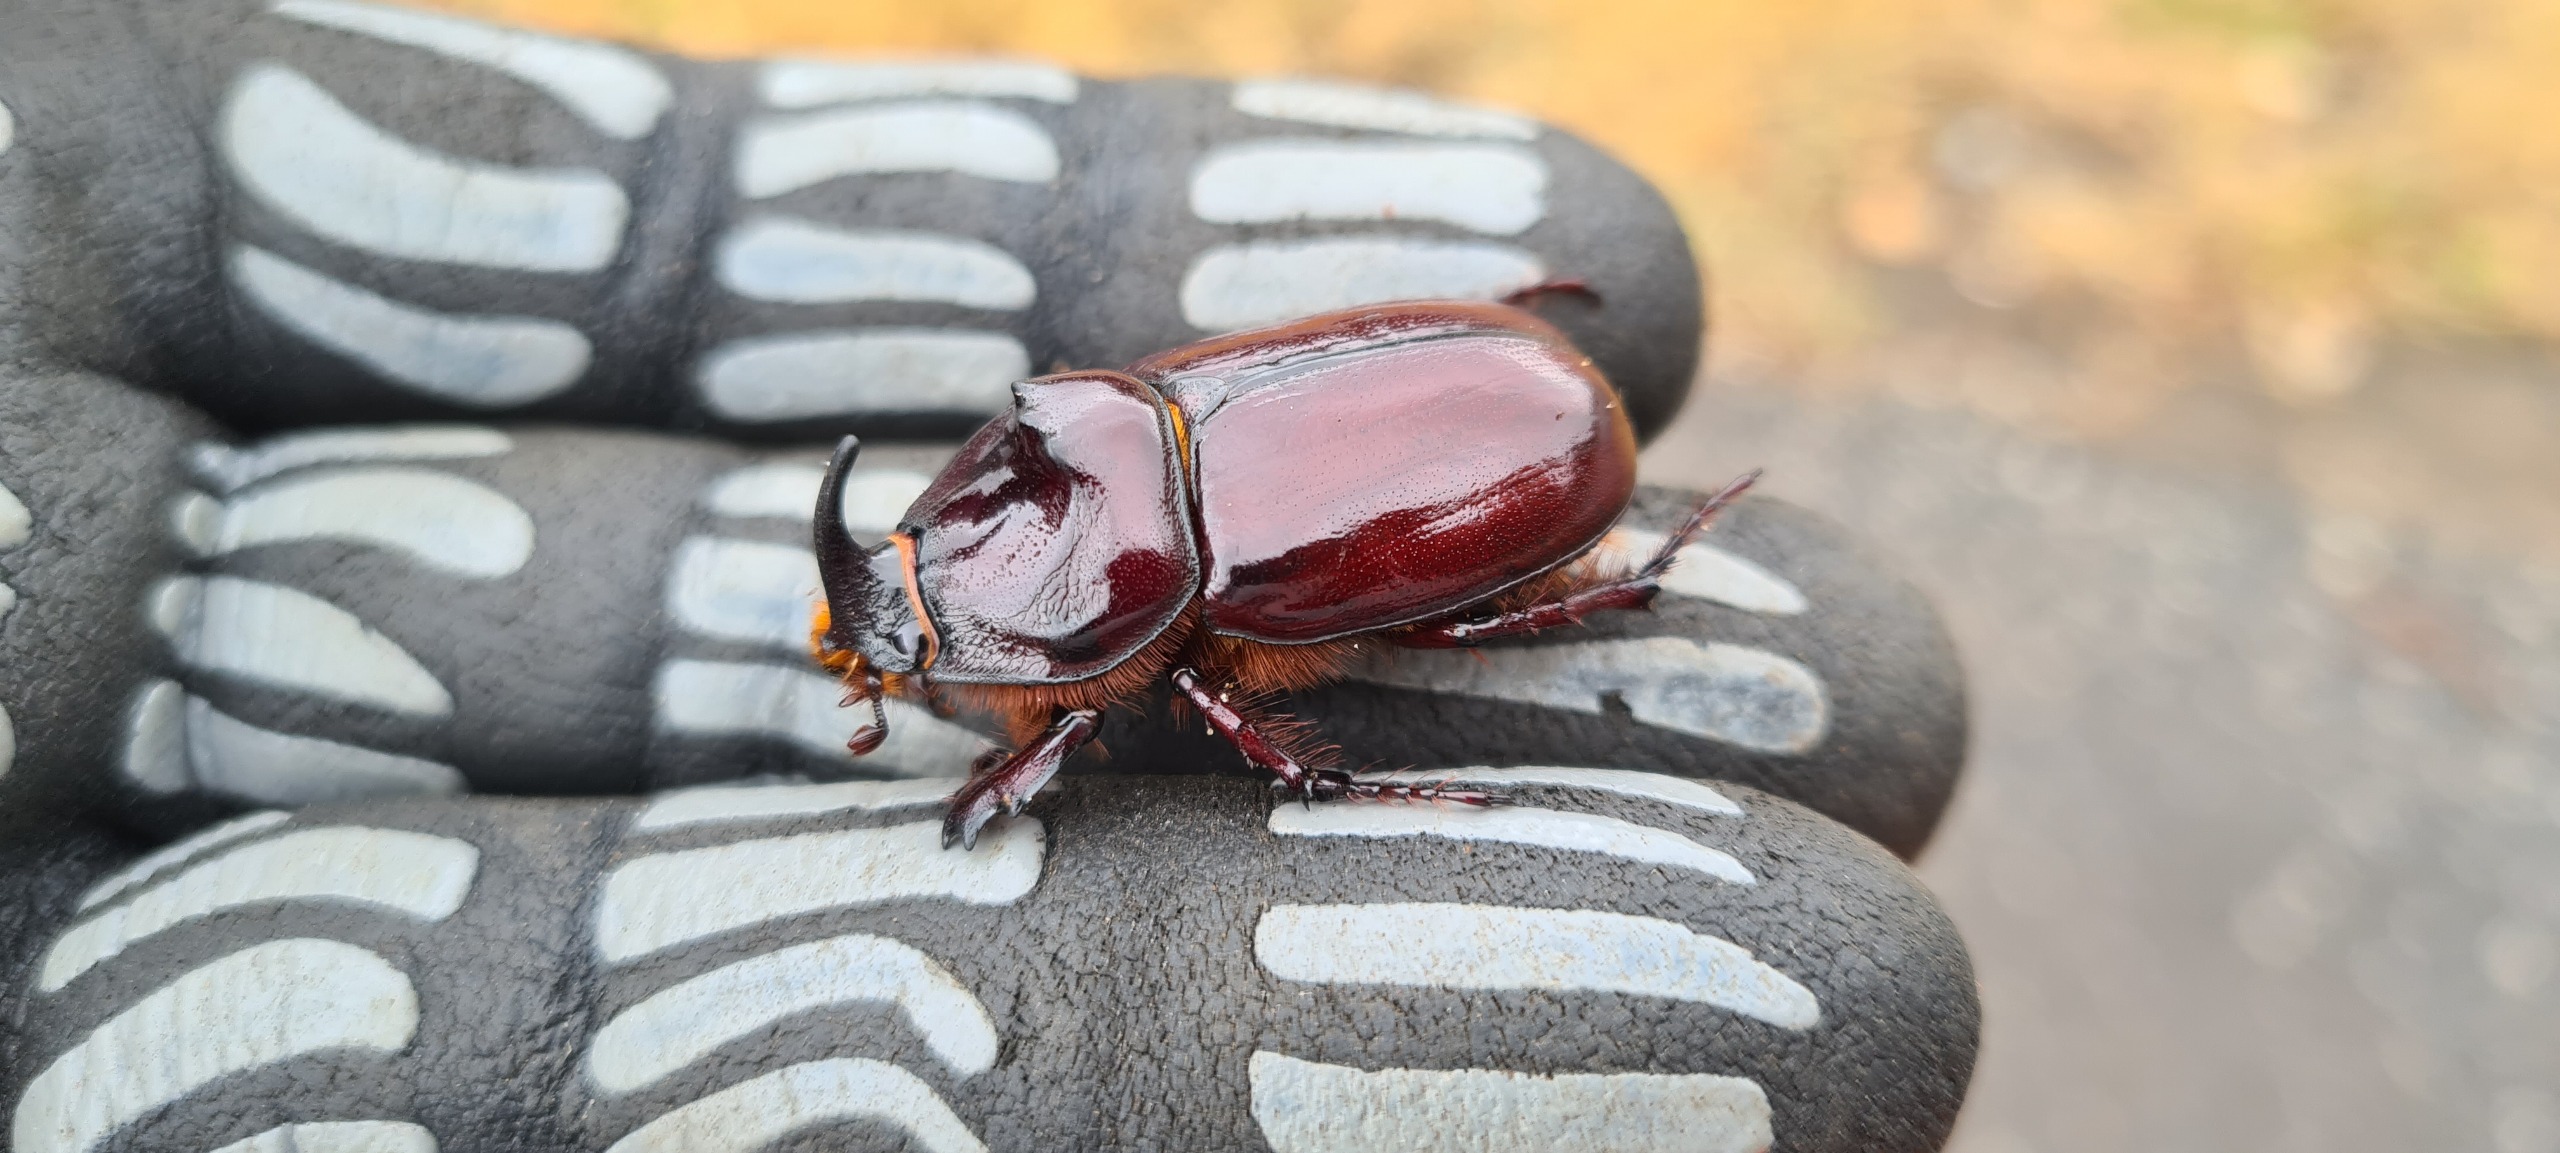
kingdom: Animalia
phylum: Arthropoda
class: Insecta
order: Coleoptera
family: Scarabaeidae
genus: Oryctes
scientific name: Oryctes nasicornis
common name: Næsehornsbille
